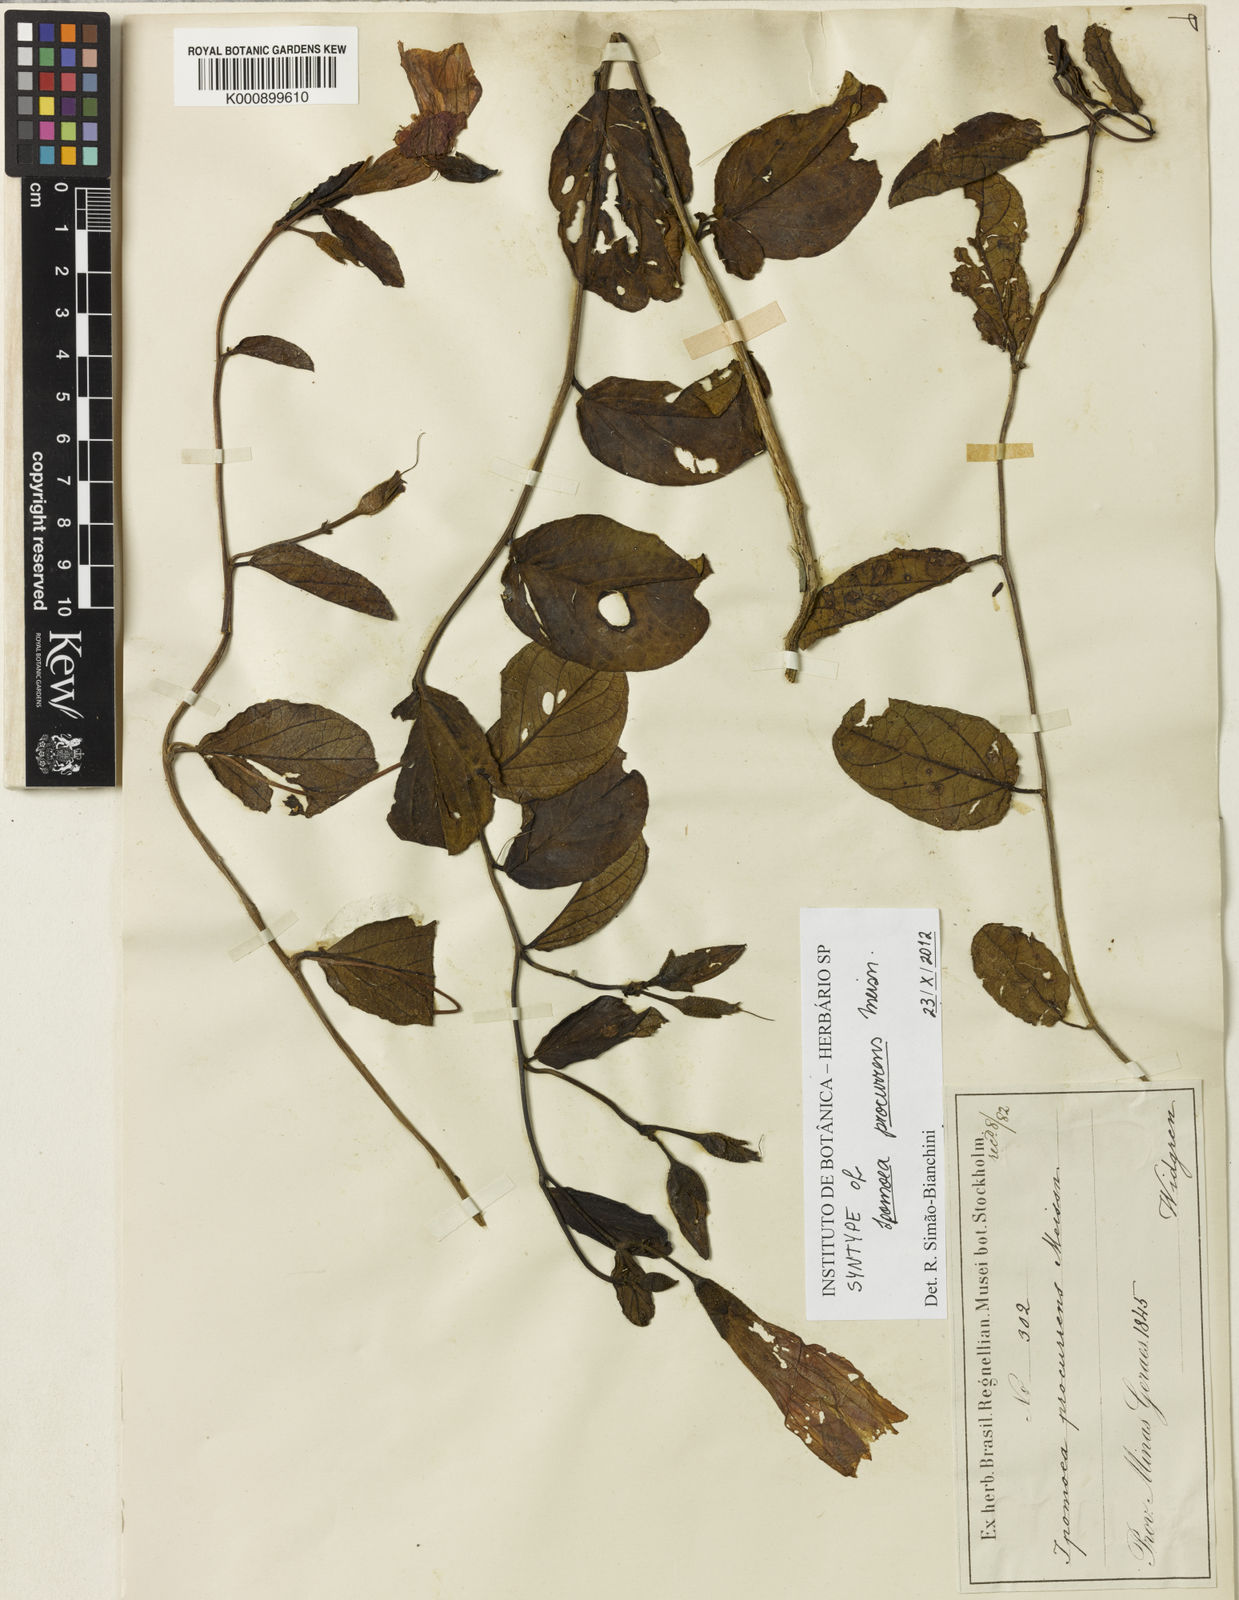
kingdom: Plantae
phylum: Tracheophyta
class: Magnoliopsida
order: Solanales
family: Convolvulaceae
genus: Ipomoea
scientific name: Ipomoea procurrens
